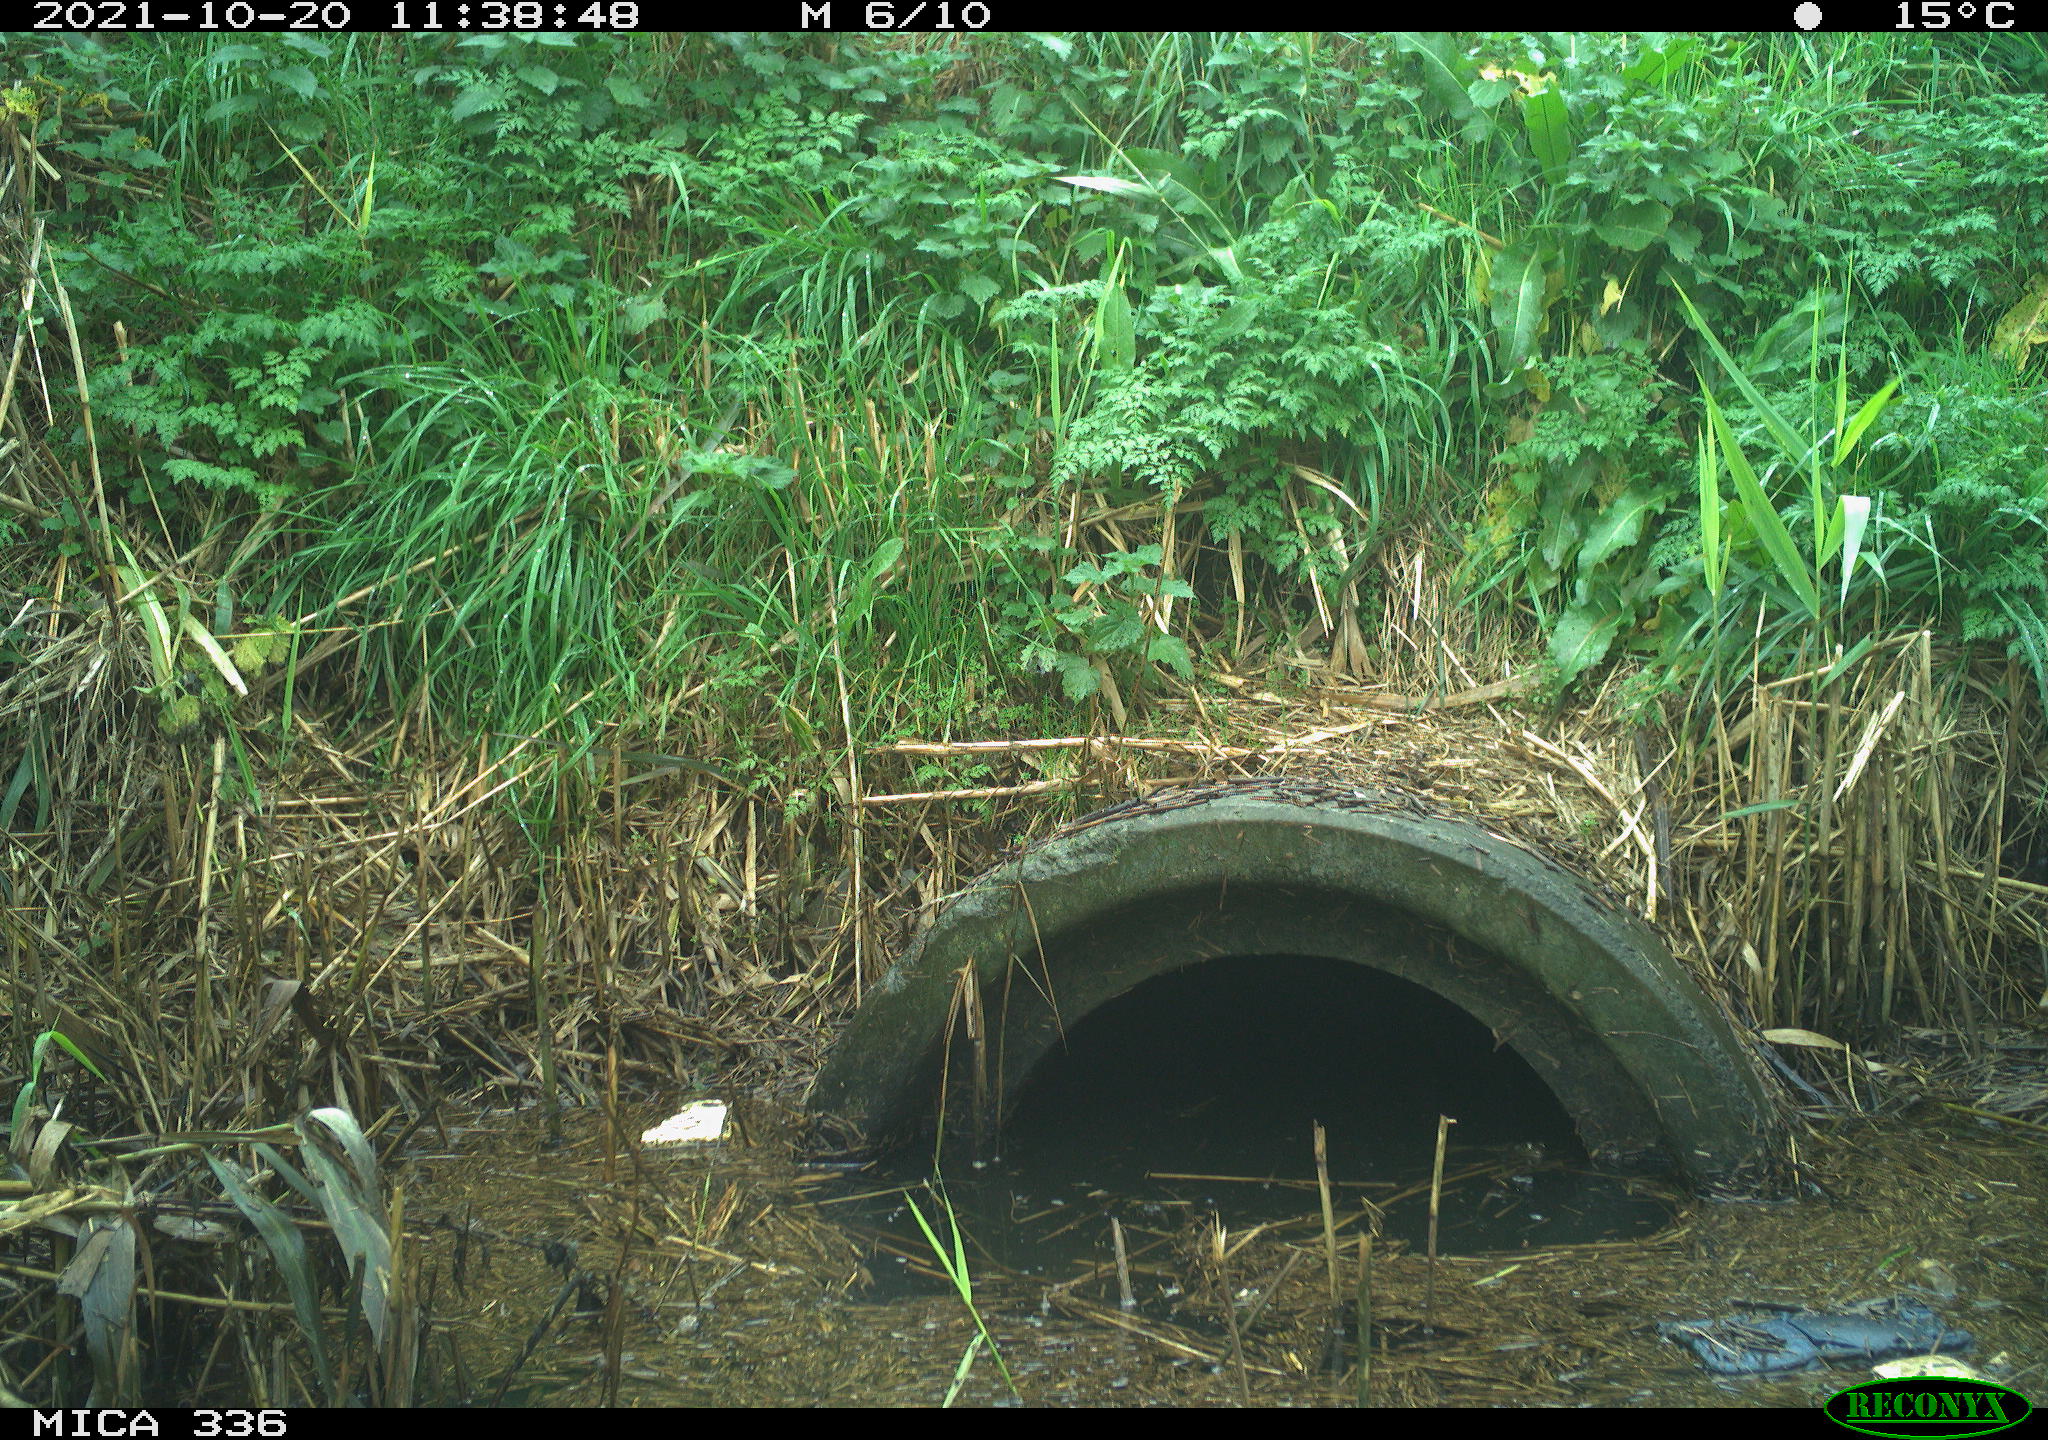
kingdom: Animalia
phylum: Chordata
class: Aves
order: Gruiformes
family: Rallidae
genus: Gallinula
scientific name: Gallinula chloropus
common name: Common moorhen
